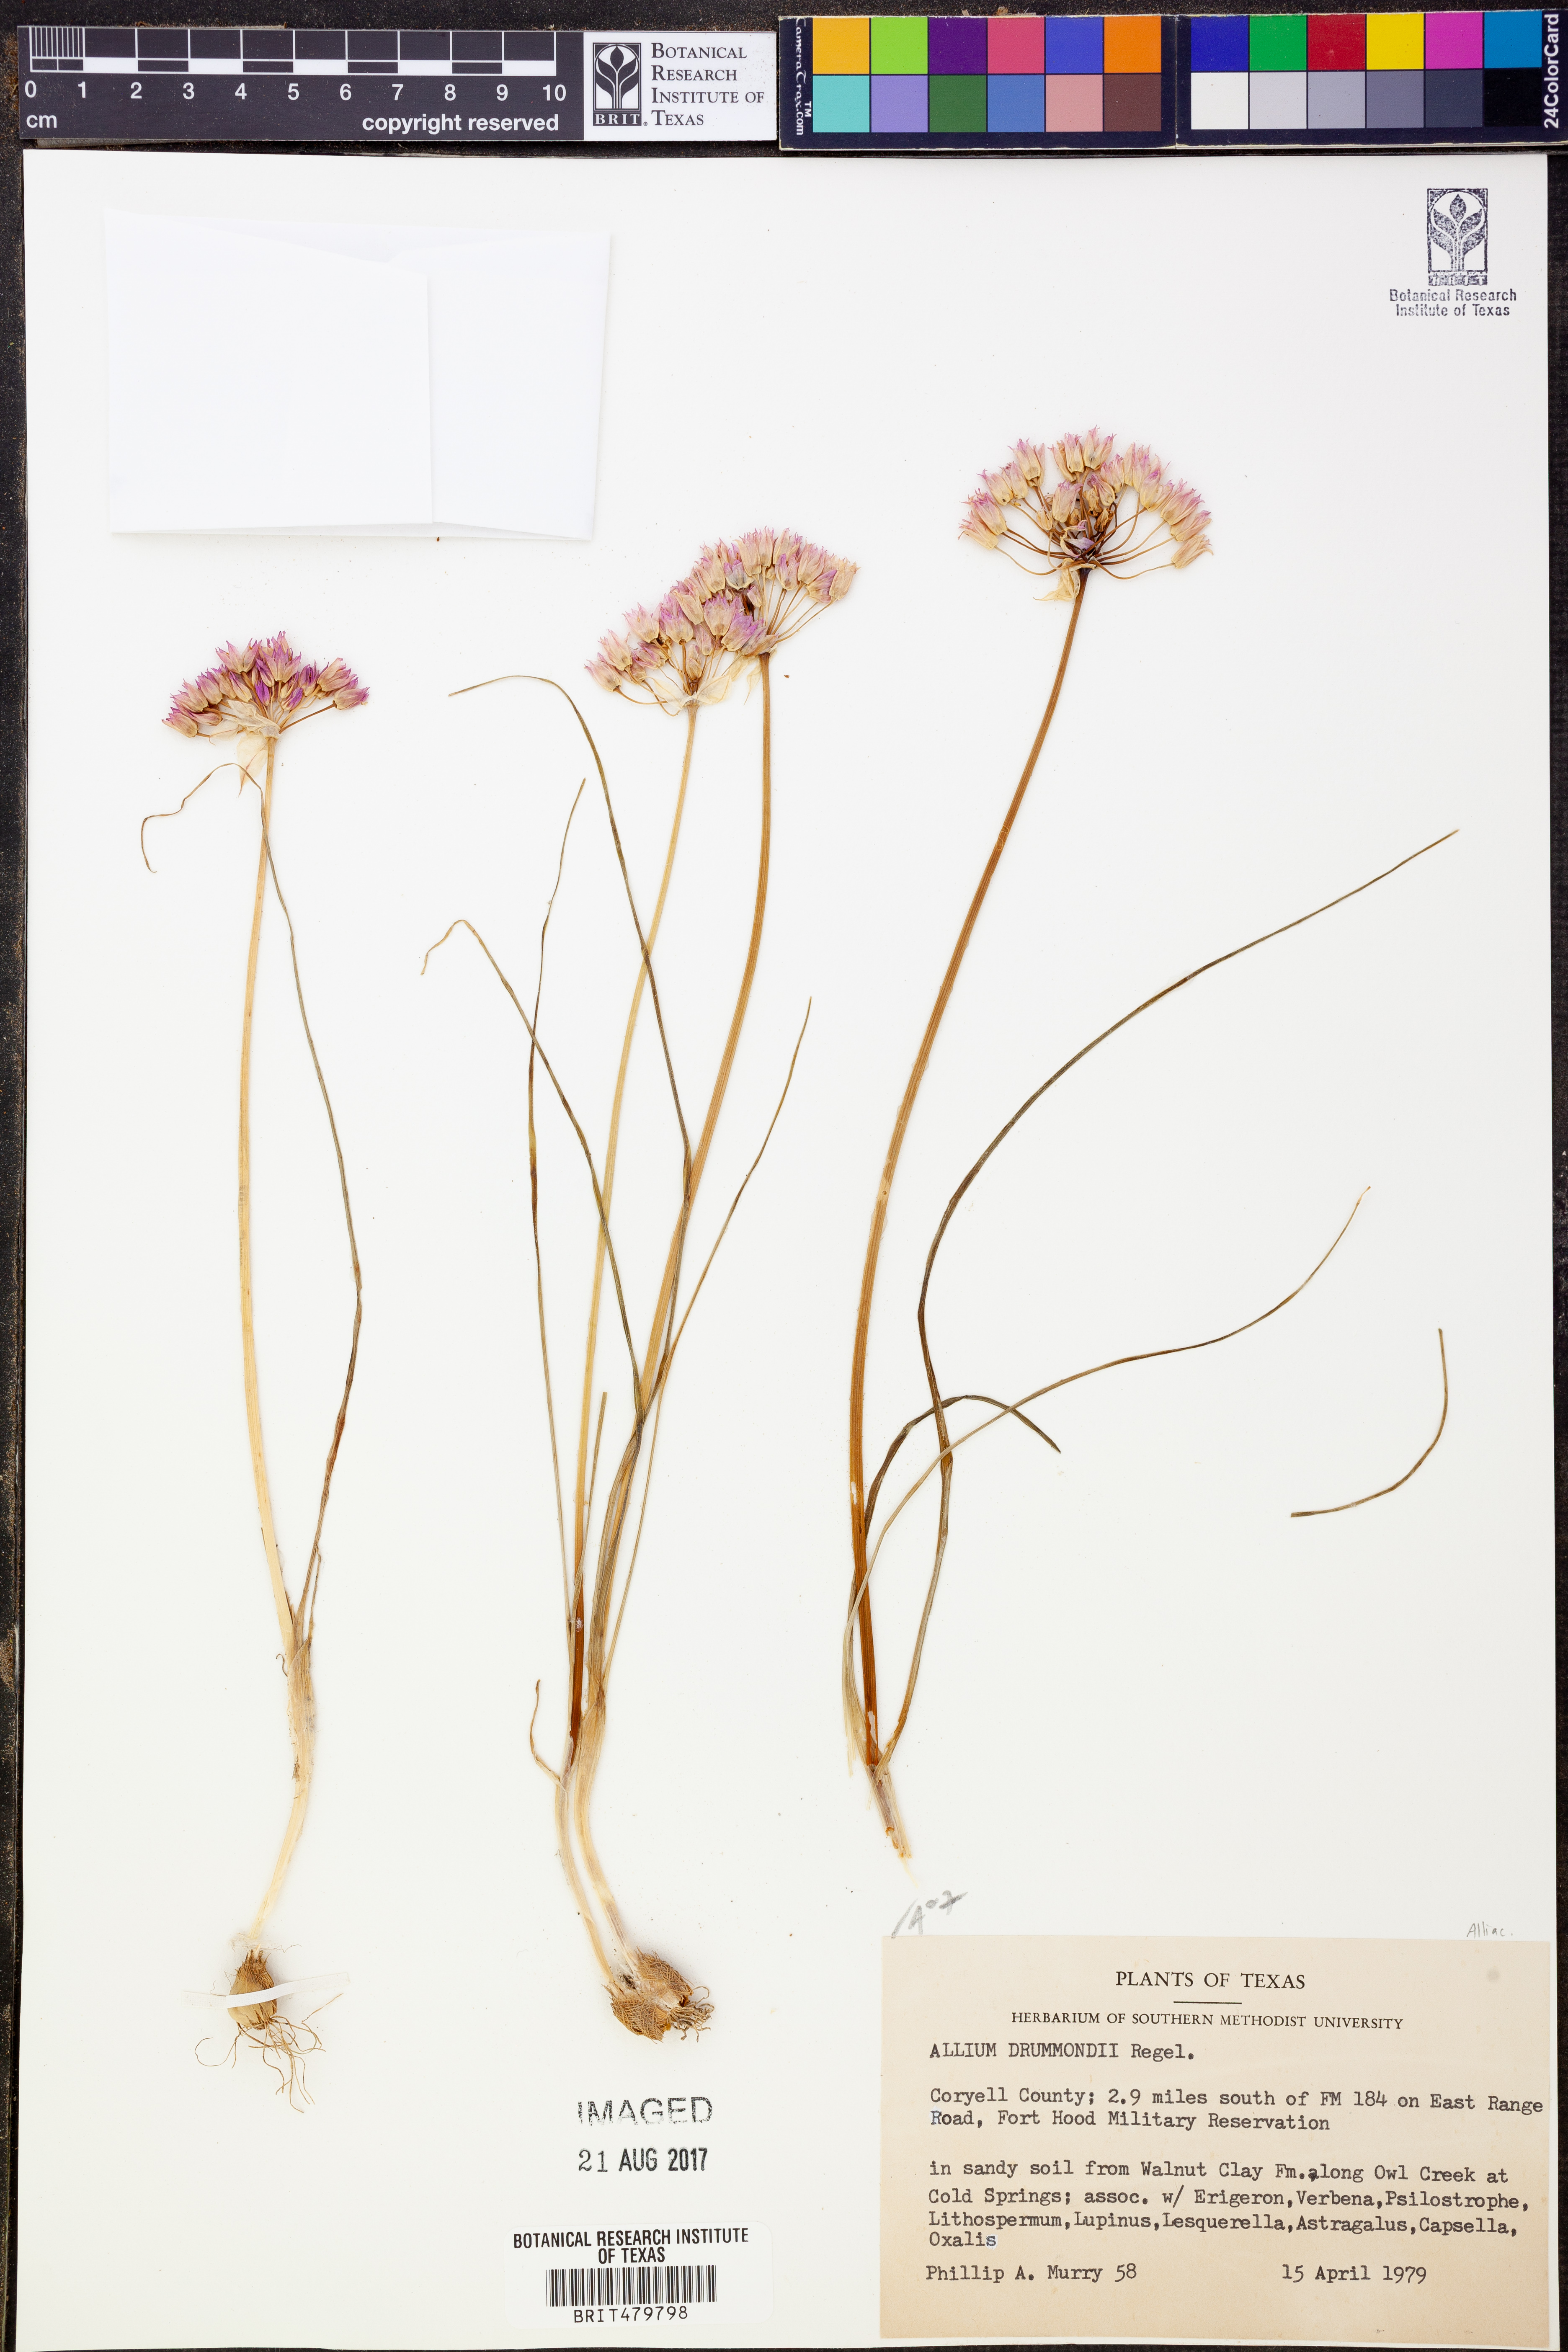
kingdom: Plantae
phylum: Tracheophyta
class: Liliopsida
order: Asparagales
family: Amaryllidaceae
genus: Allium
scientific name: Allium drummondii
